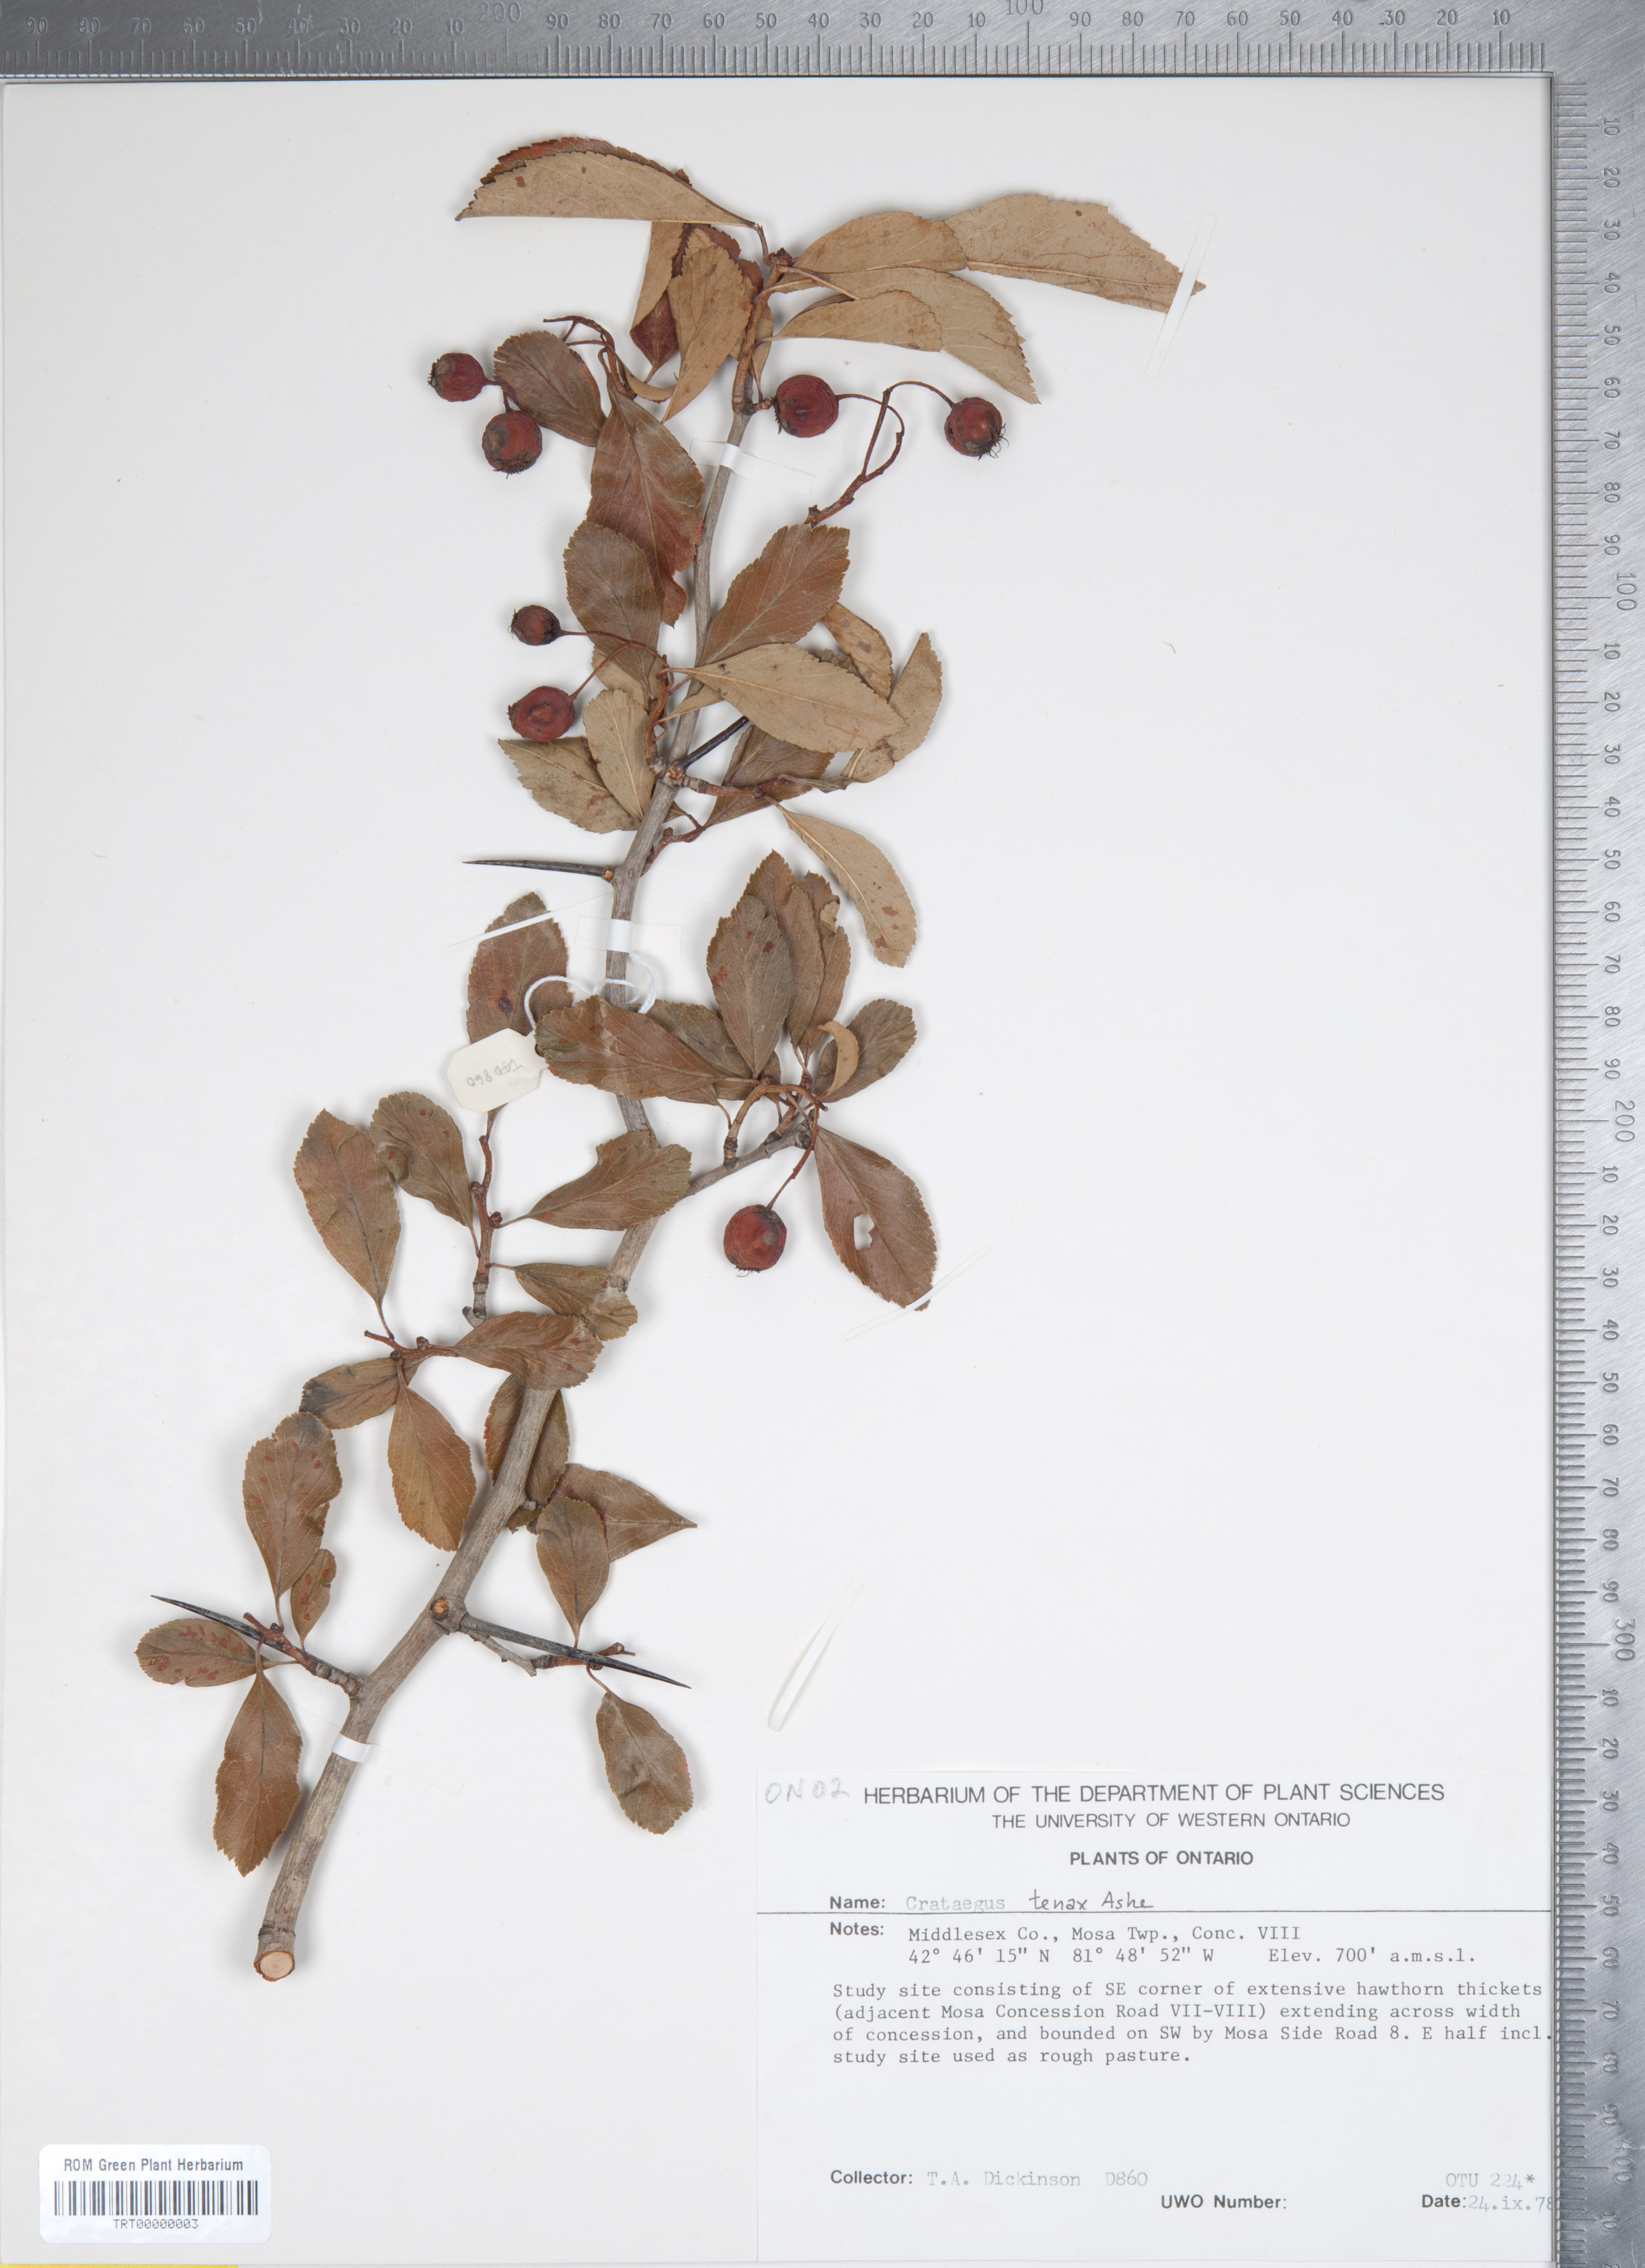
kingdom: Plantae
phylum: Tracheophyta
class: Magnoliopsida
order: Rosales
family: Rosaceae
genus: Crataegus
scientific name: Crataegus crus-galli
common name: Cockspurthorn
